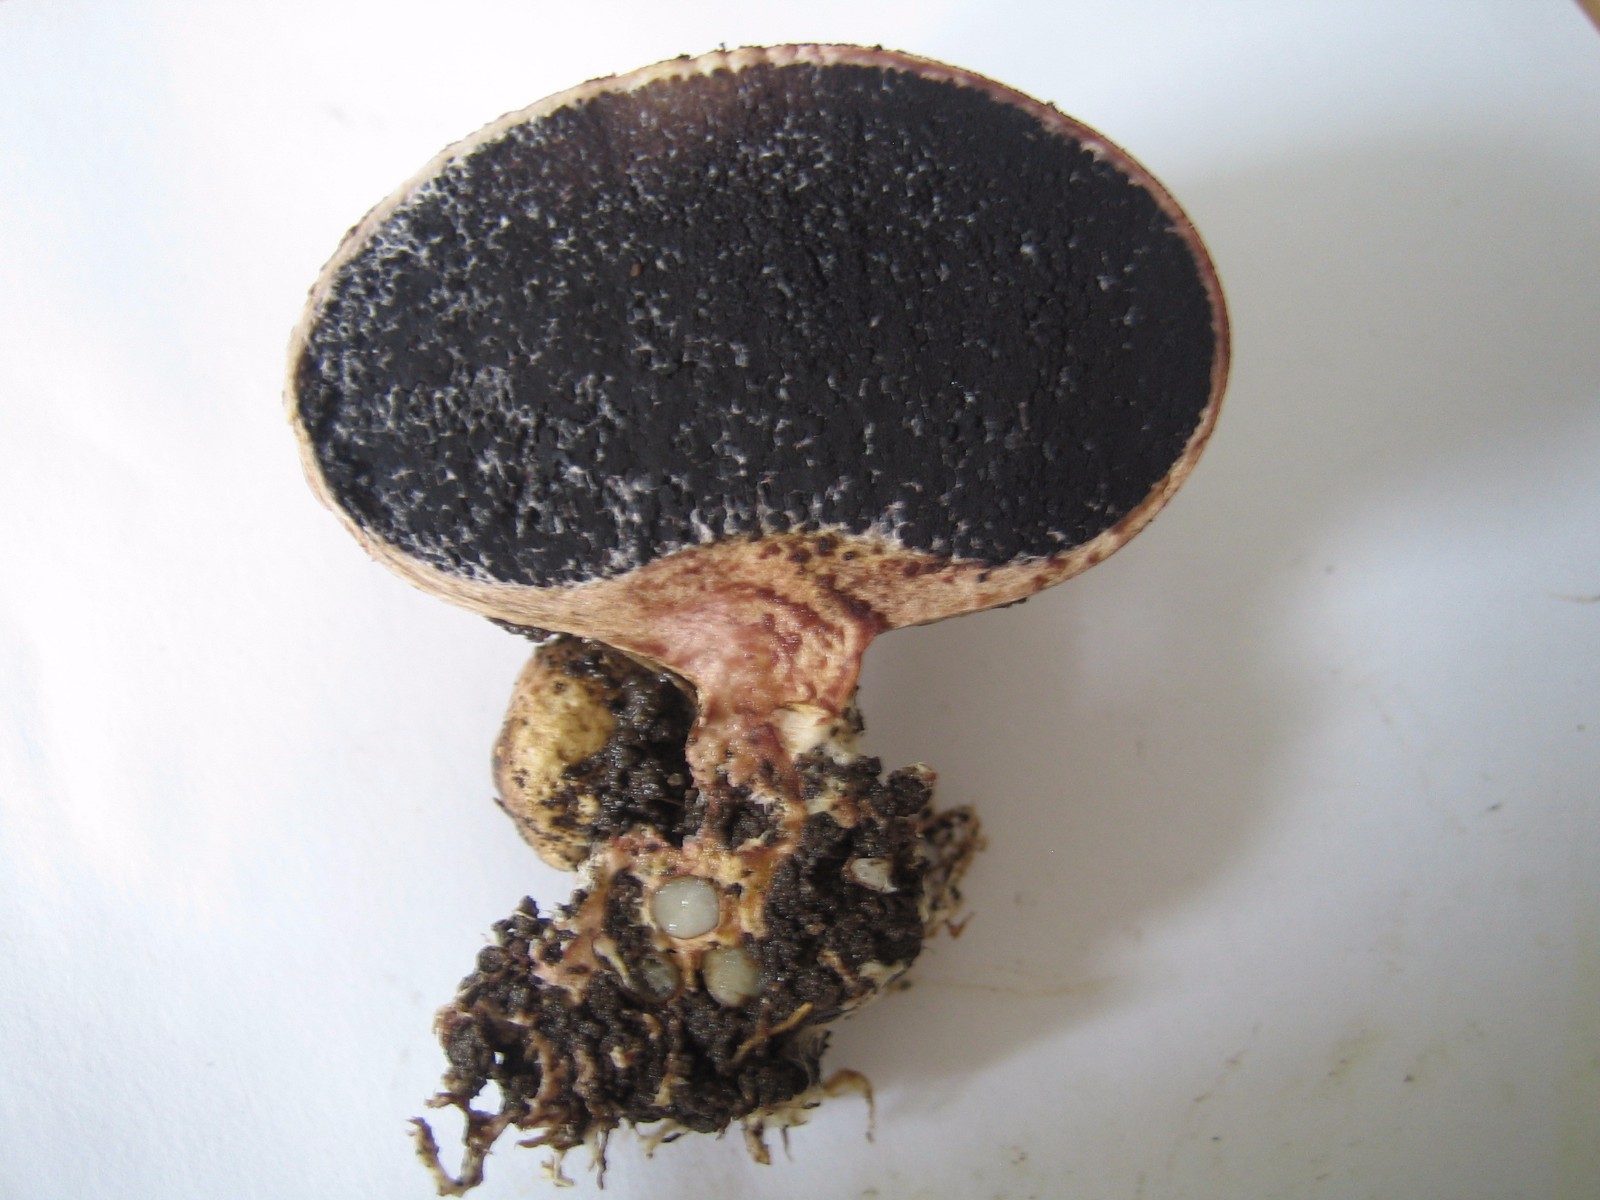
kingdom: Fungi
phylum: Basidiomycota
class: Agaricomycetes
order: Boletales
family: Sclerodermataceae
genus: Scleroderma
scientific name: Scleroderma verrucosum
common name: stilket bruskbold
